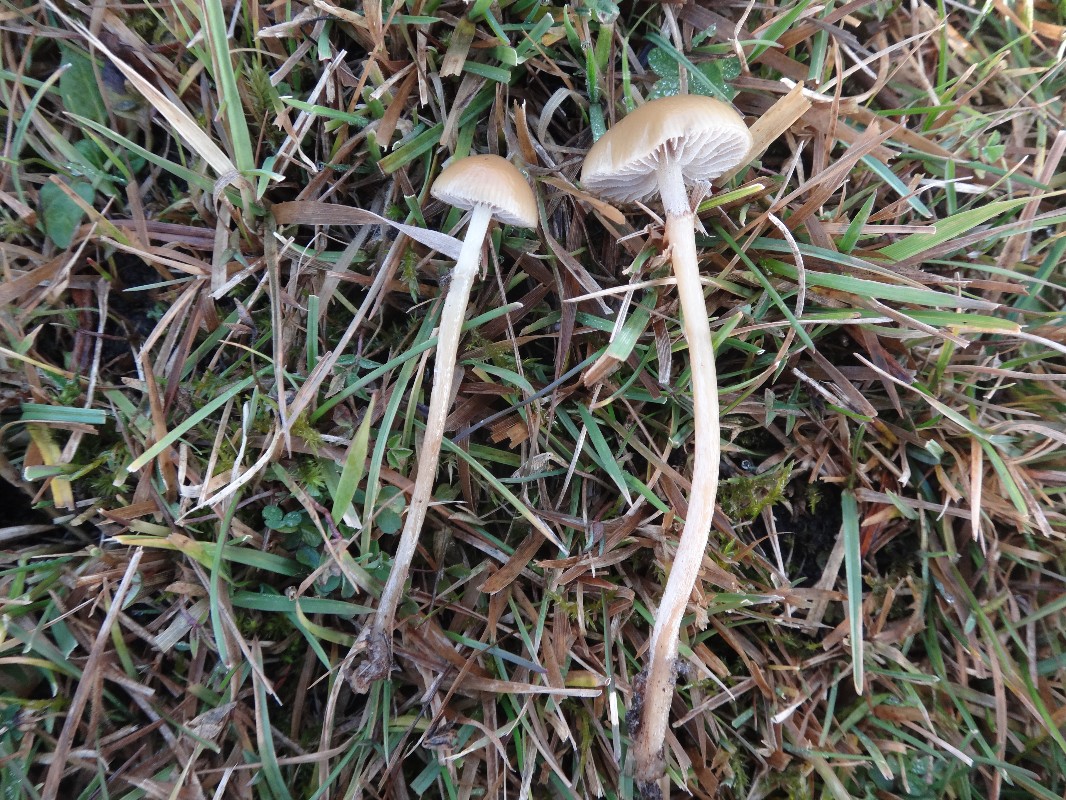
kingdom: Fungi
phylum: Basidiomycota
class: Agaricomycetes
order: Agaricales
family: Strophariaceae
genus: Protostropharia
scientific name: Protostropharia semiglobata
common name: halvkugleformet bredblad
